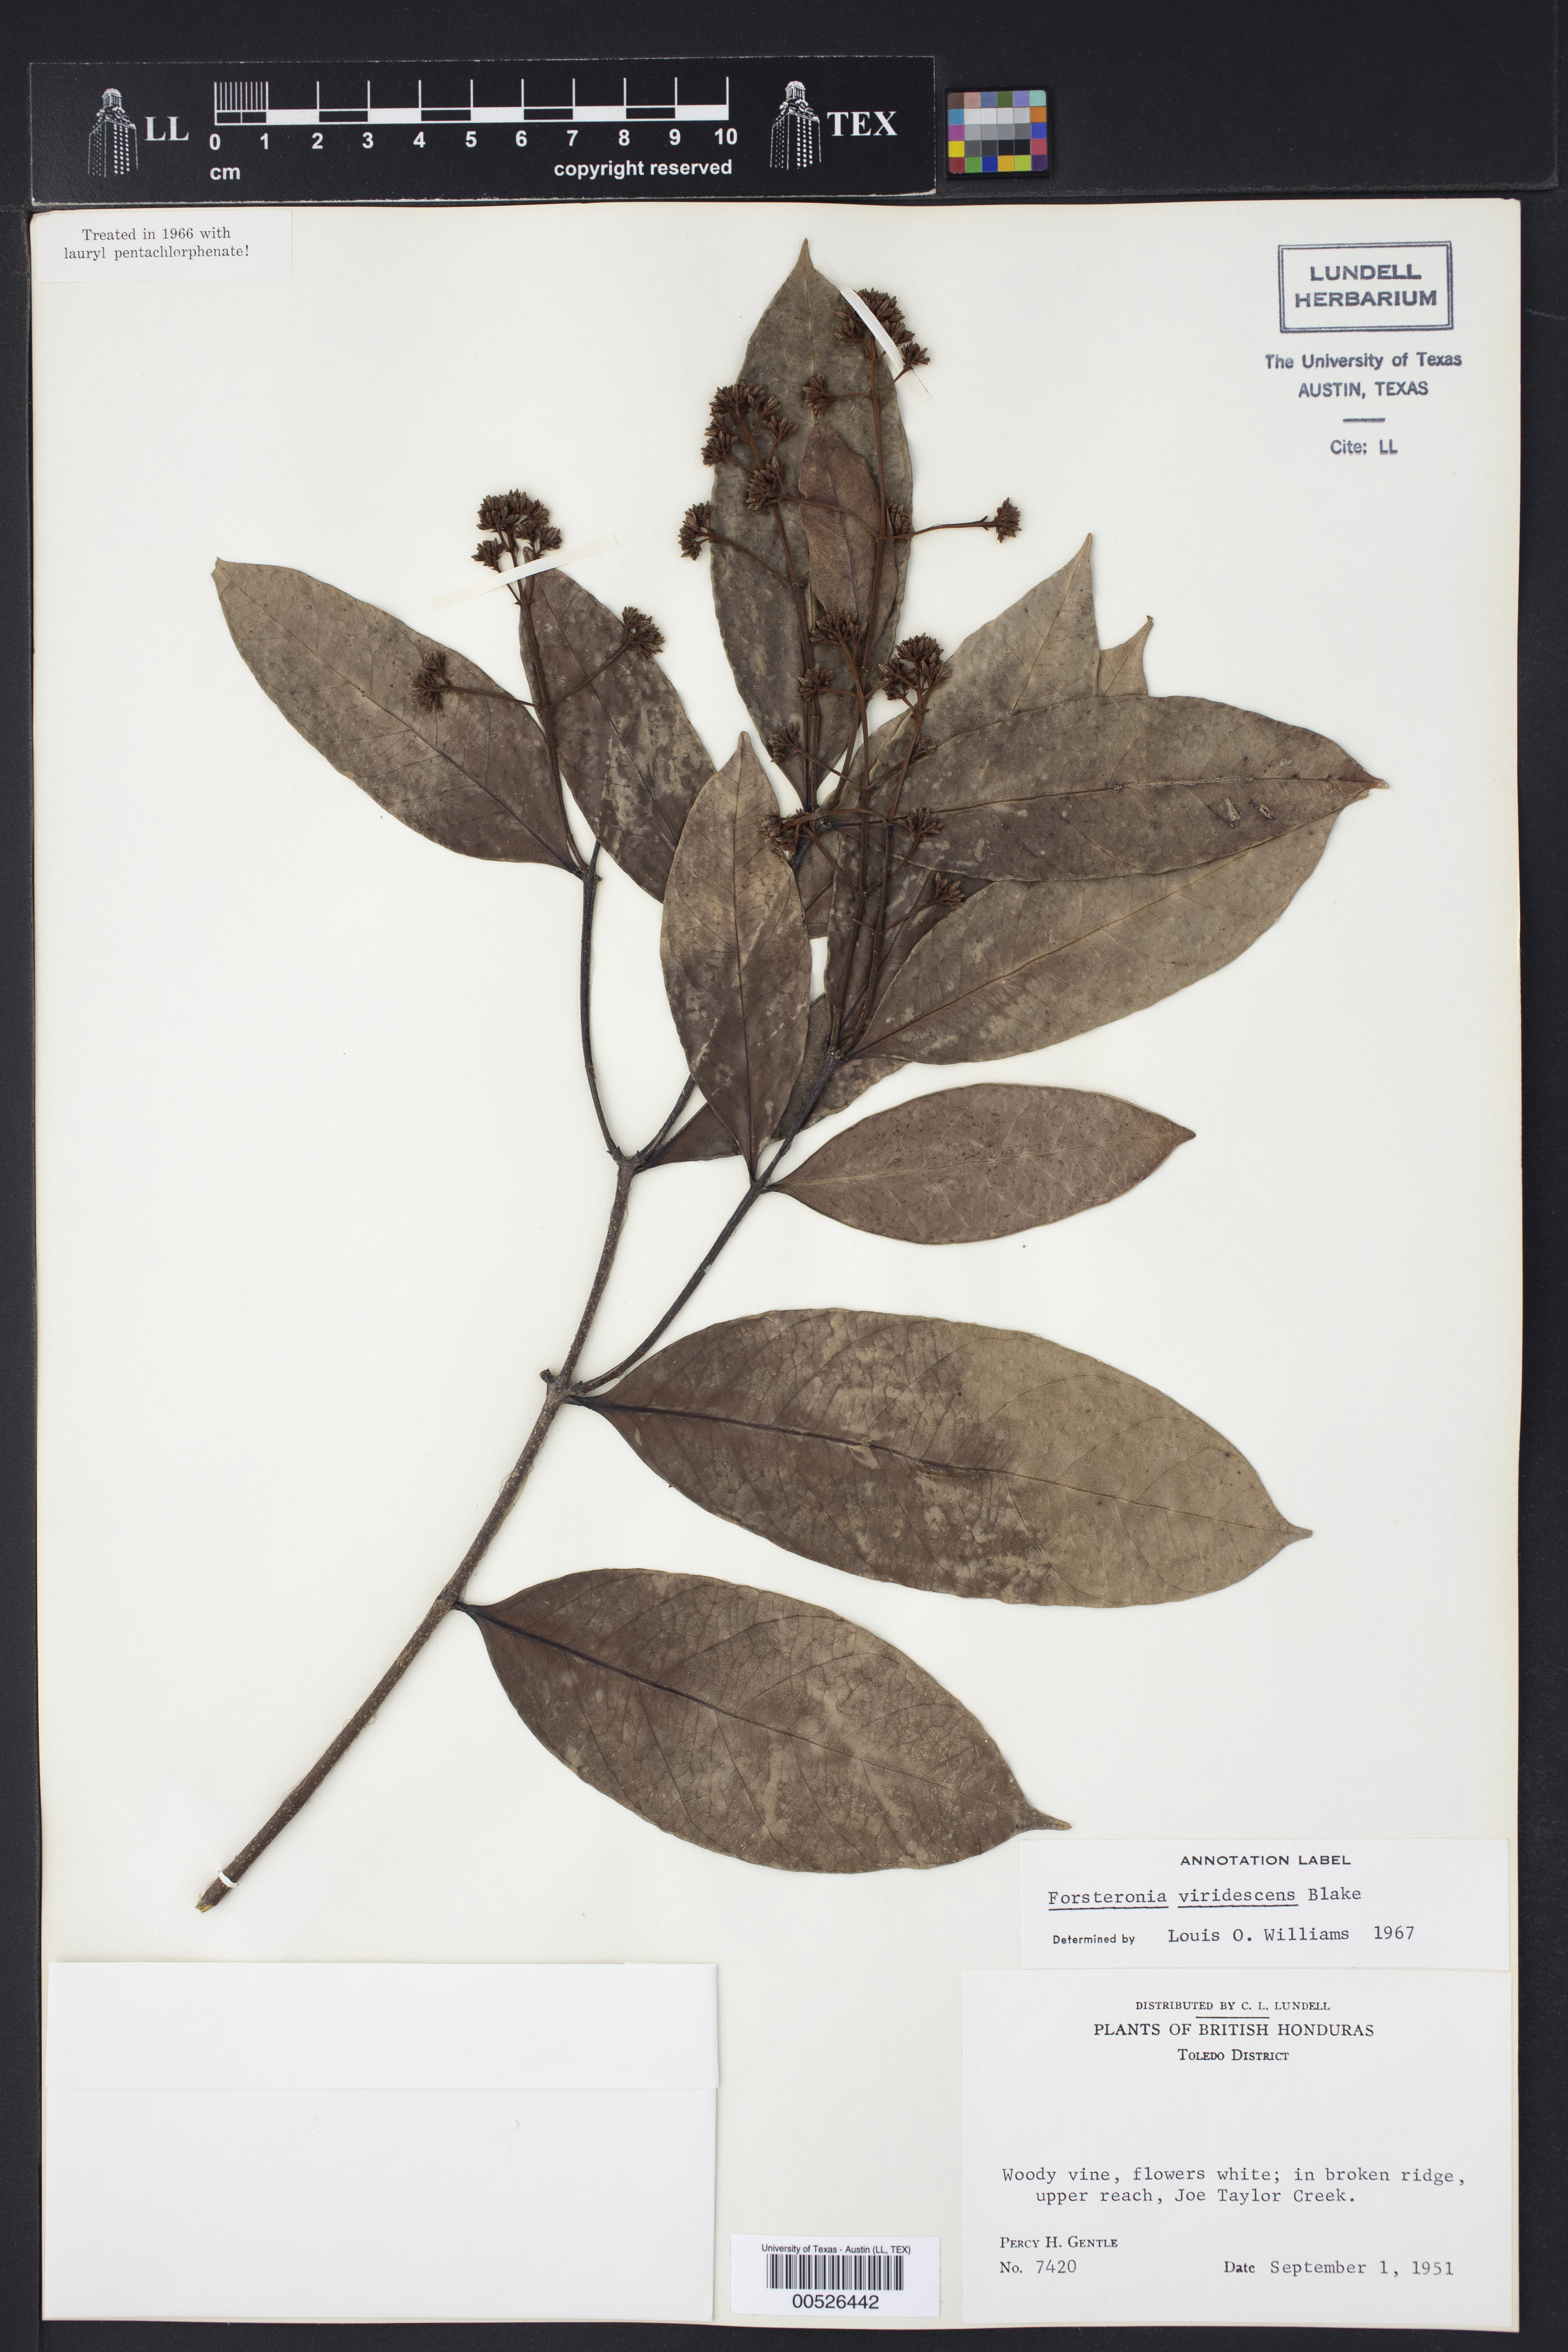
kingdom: Plantae
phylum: Tracheophyta
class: Magnoliopsida
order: Gentianales
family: Apocynaceae
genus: Forsteronia
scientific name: Forsteronia acouci
